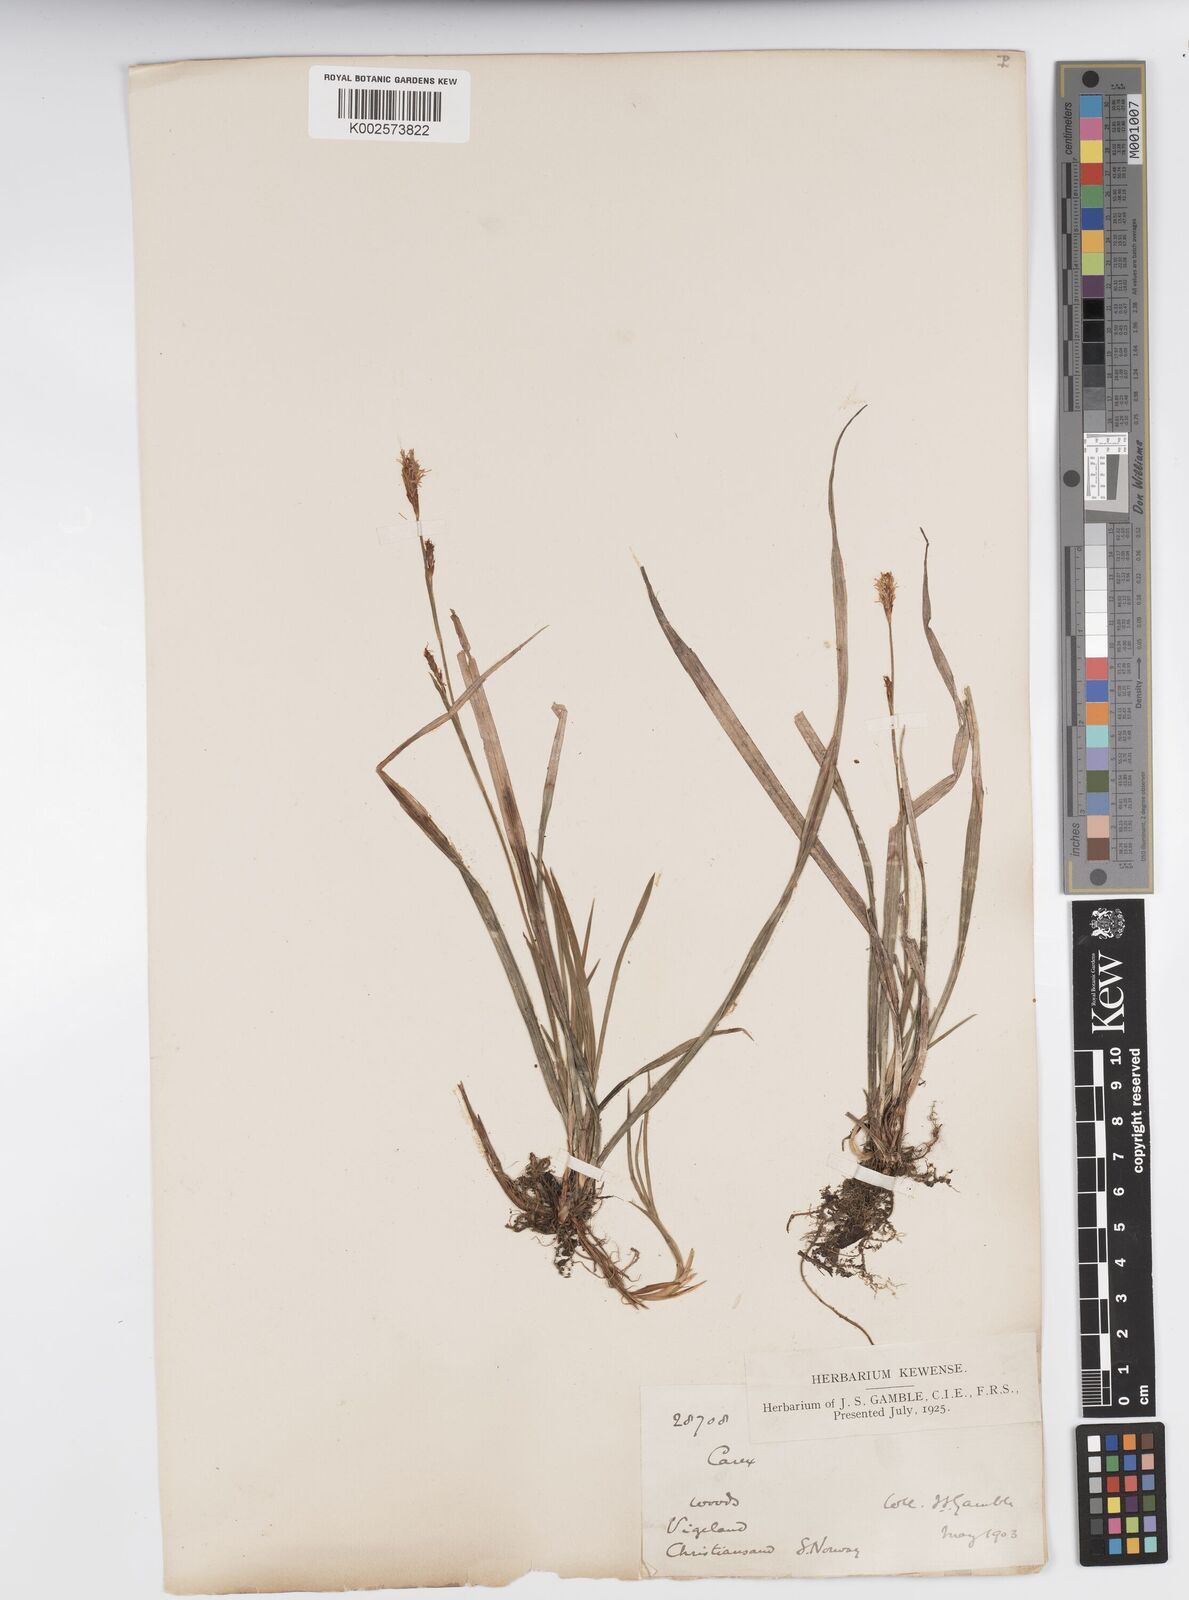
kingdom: Plantae
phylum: Tracheophyta
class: Liliopsida
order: Poales
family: Cyperaceae
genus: Carex
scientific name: Carex vaginata
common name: Sheathed sedge
